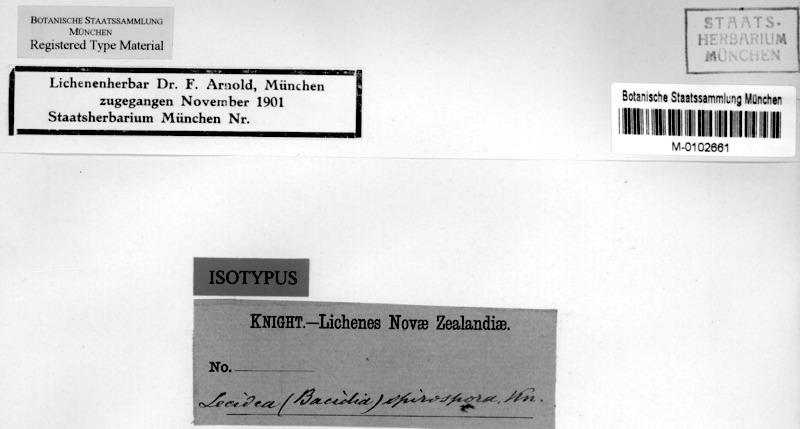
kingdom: Fungi
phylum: Ascomycota
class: Lecanoromycetes
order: Lecanorales
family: Ramalinaceae
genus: Bacidia
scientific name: Bacidia wellingtonii
